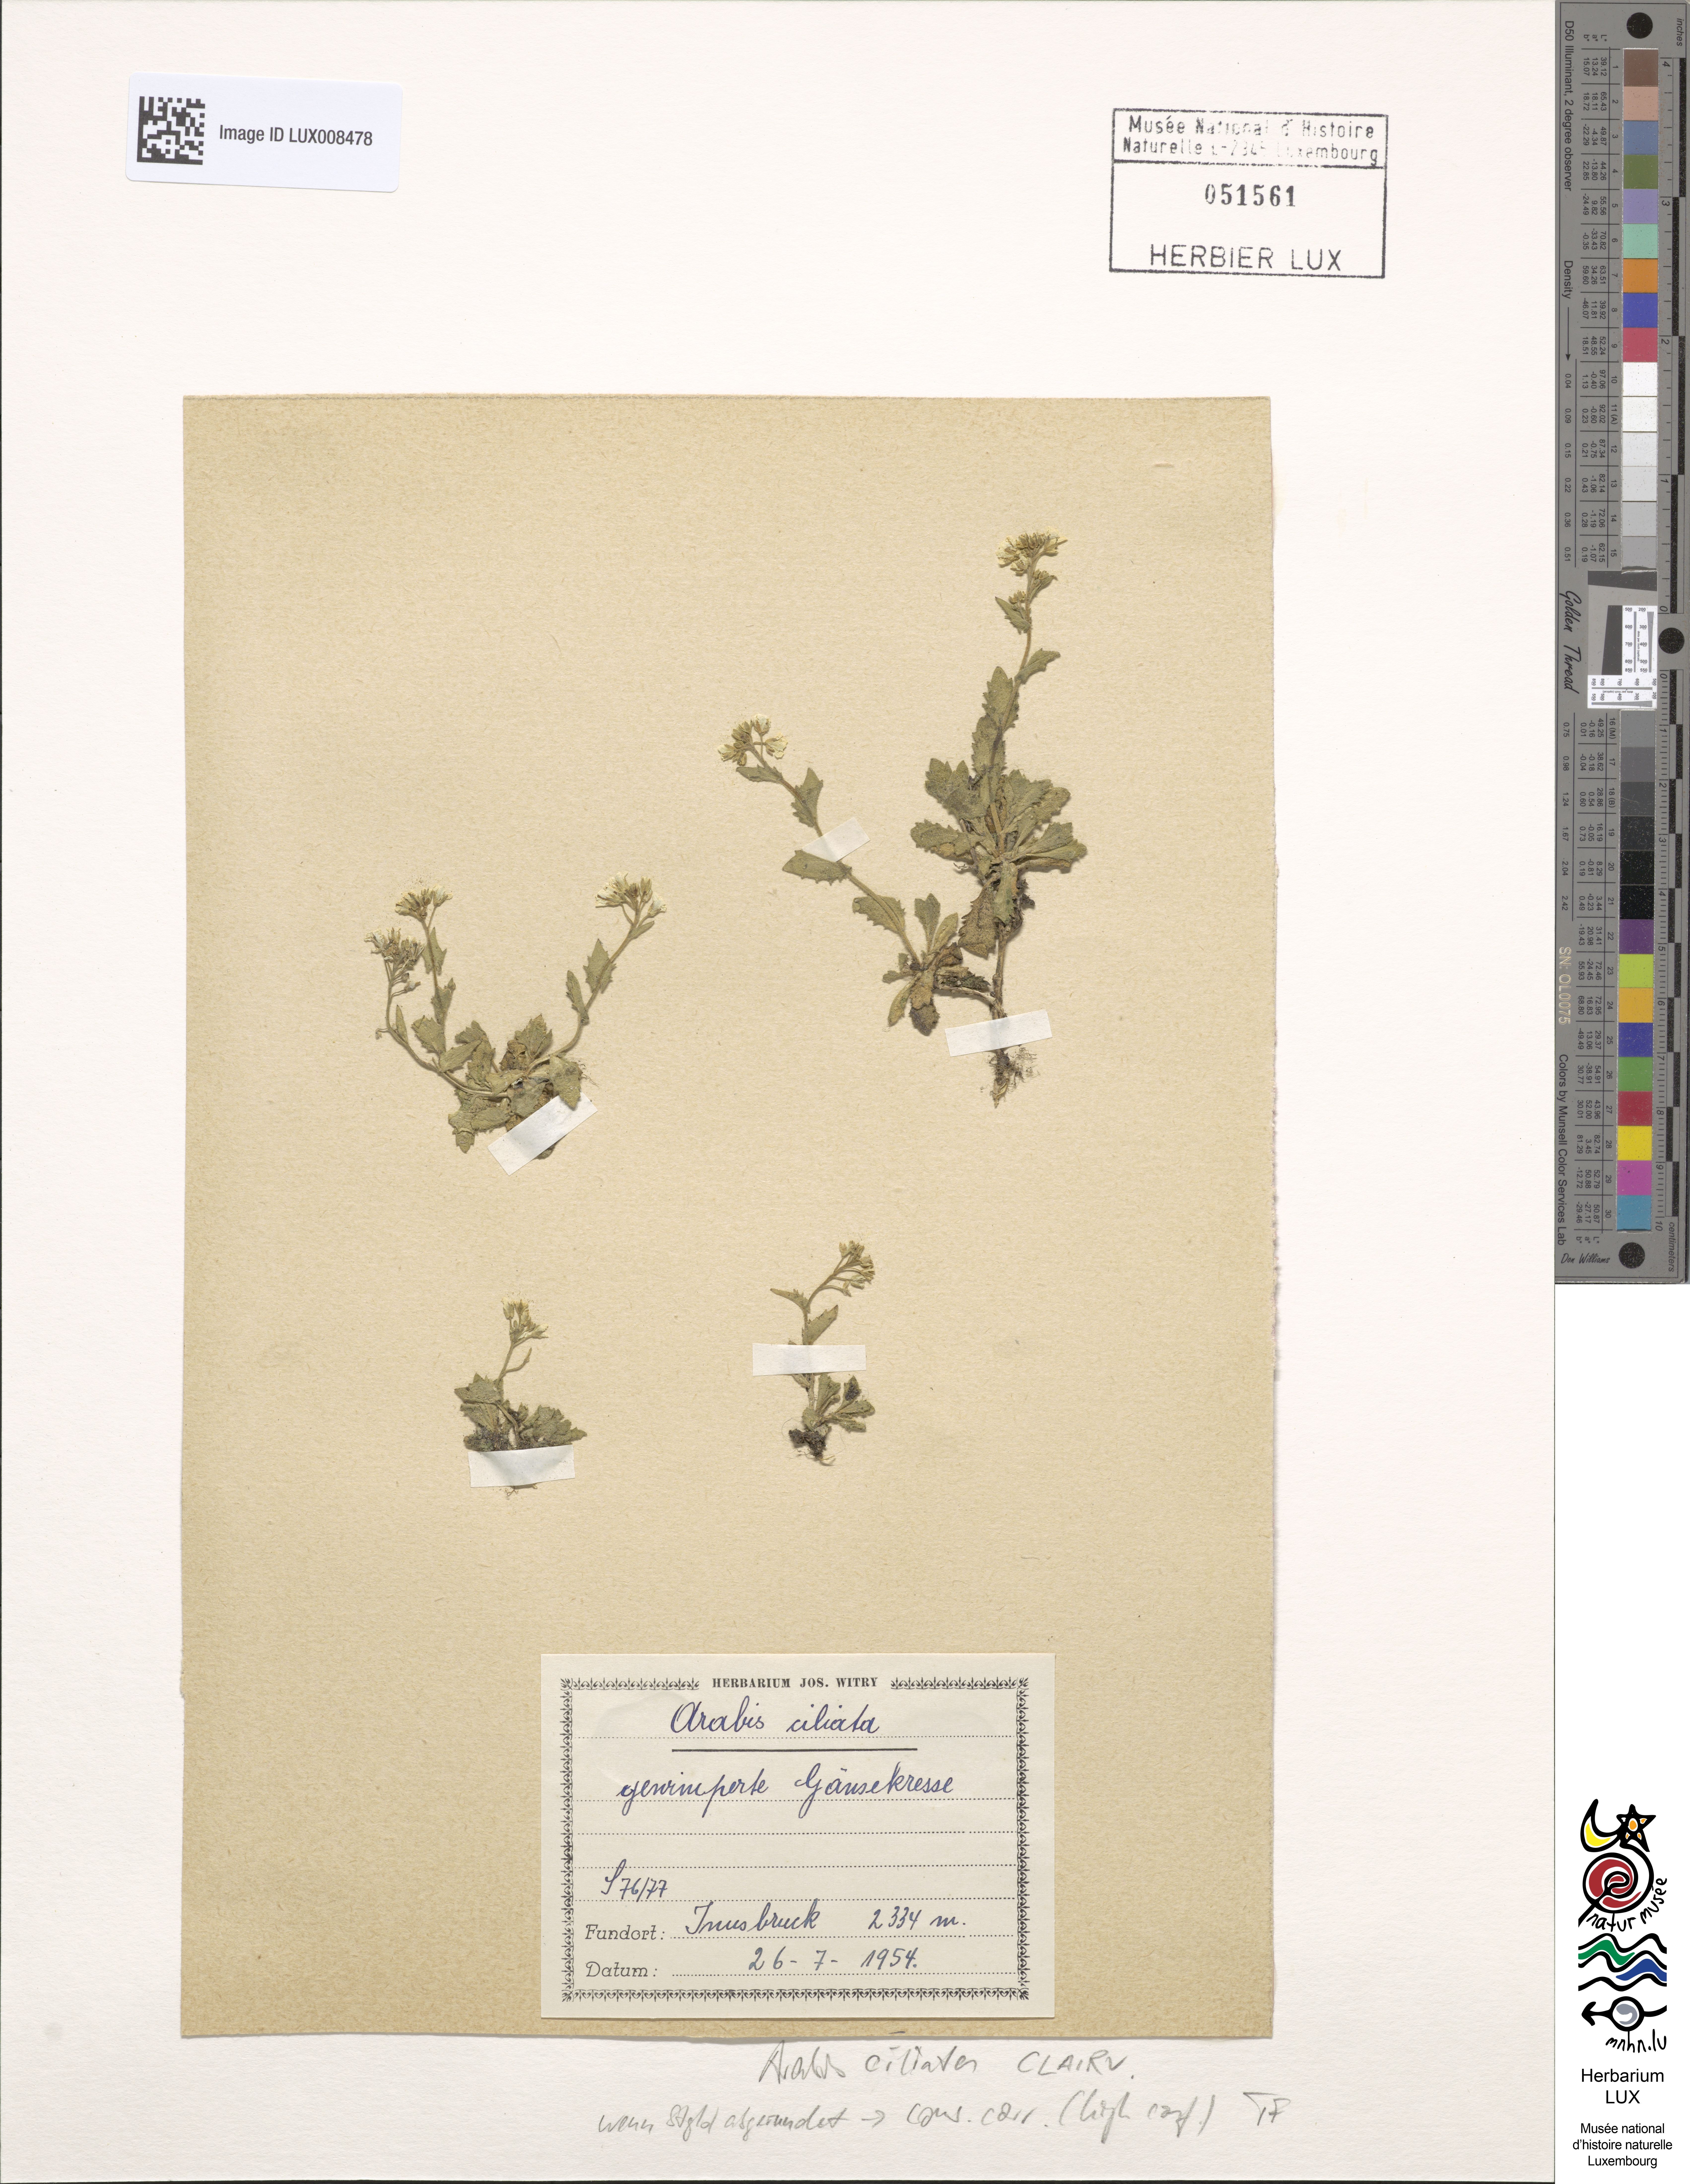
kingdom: Plantae
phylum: Tracheophyta
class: Magnoliopsida
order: Brassicales
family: Brassicaceae
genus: Arabis
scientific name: Arabis ciliata
